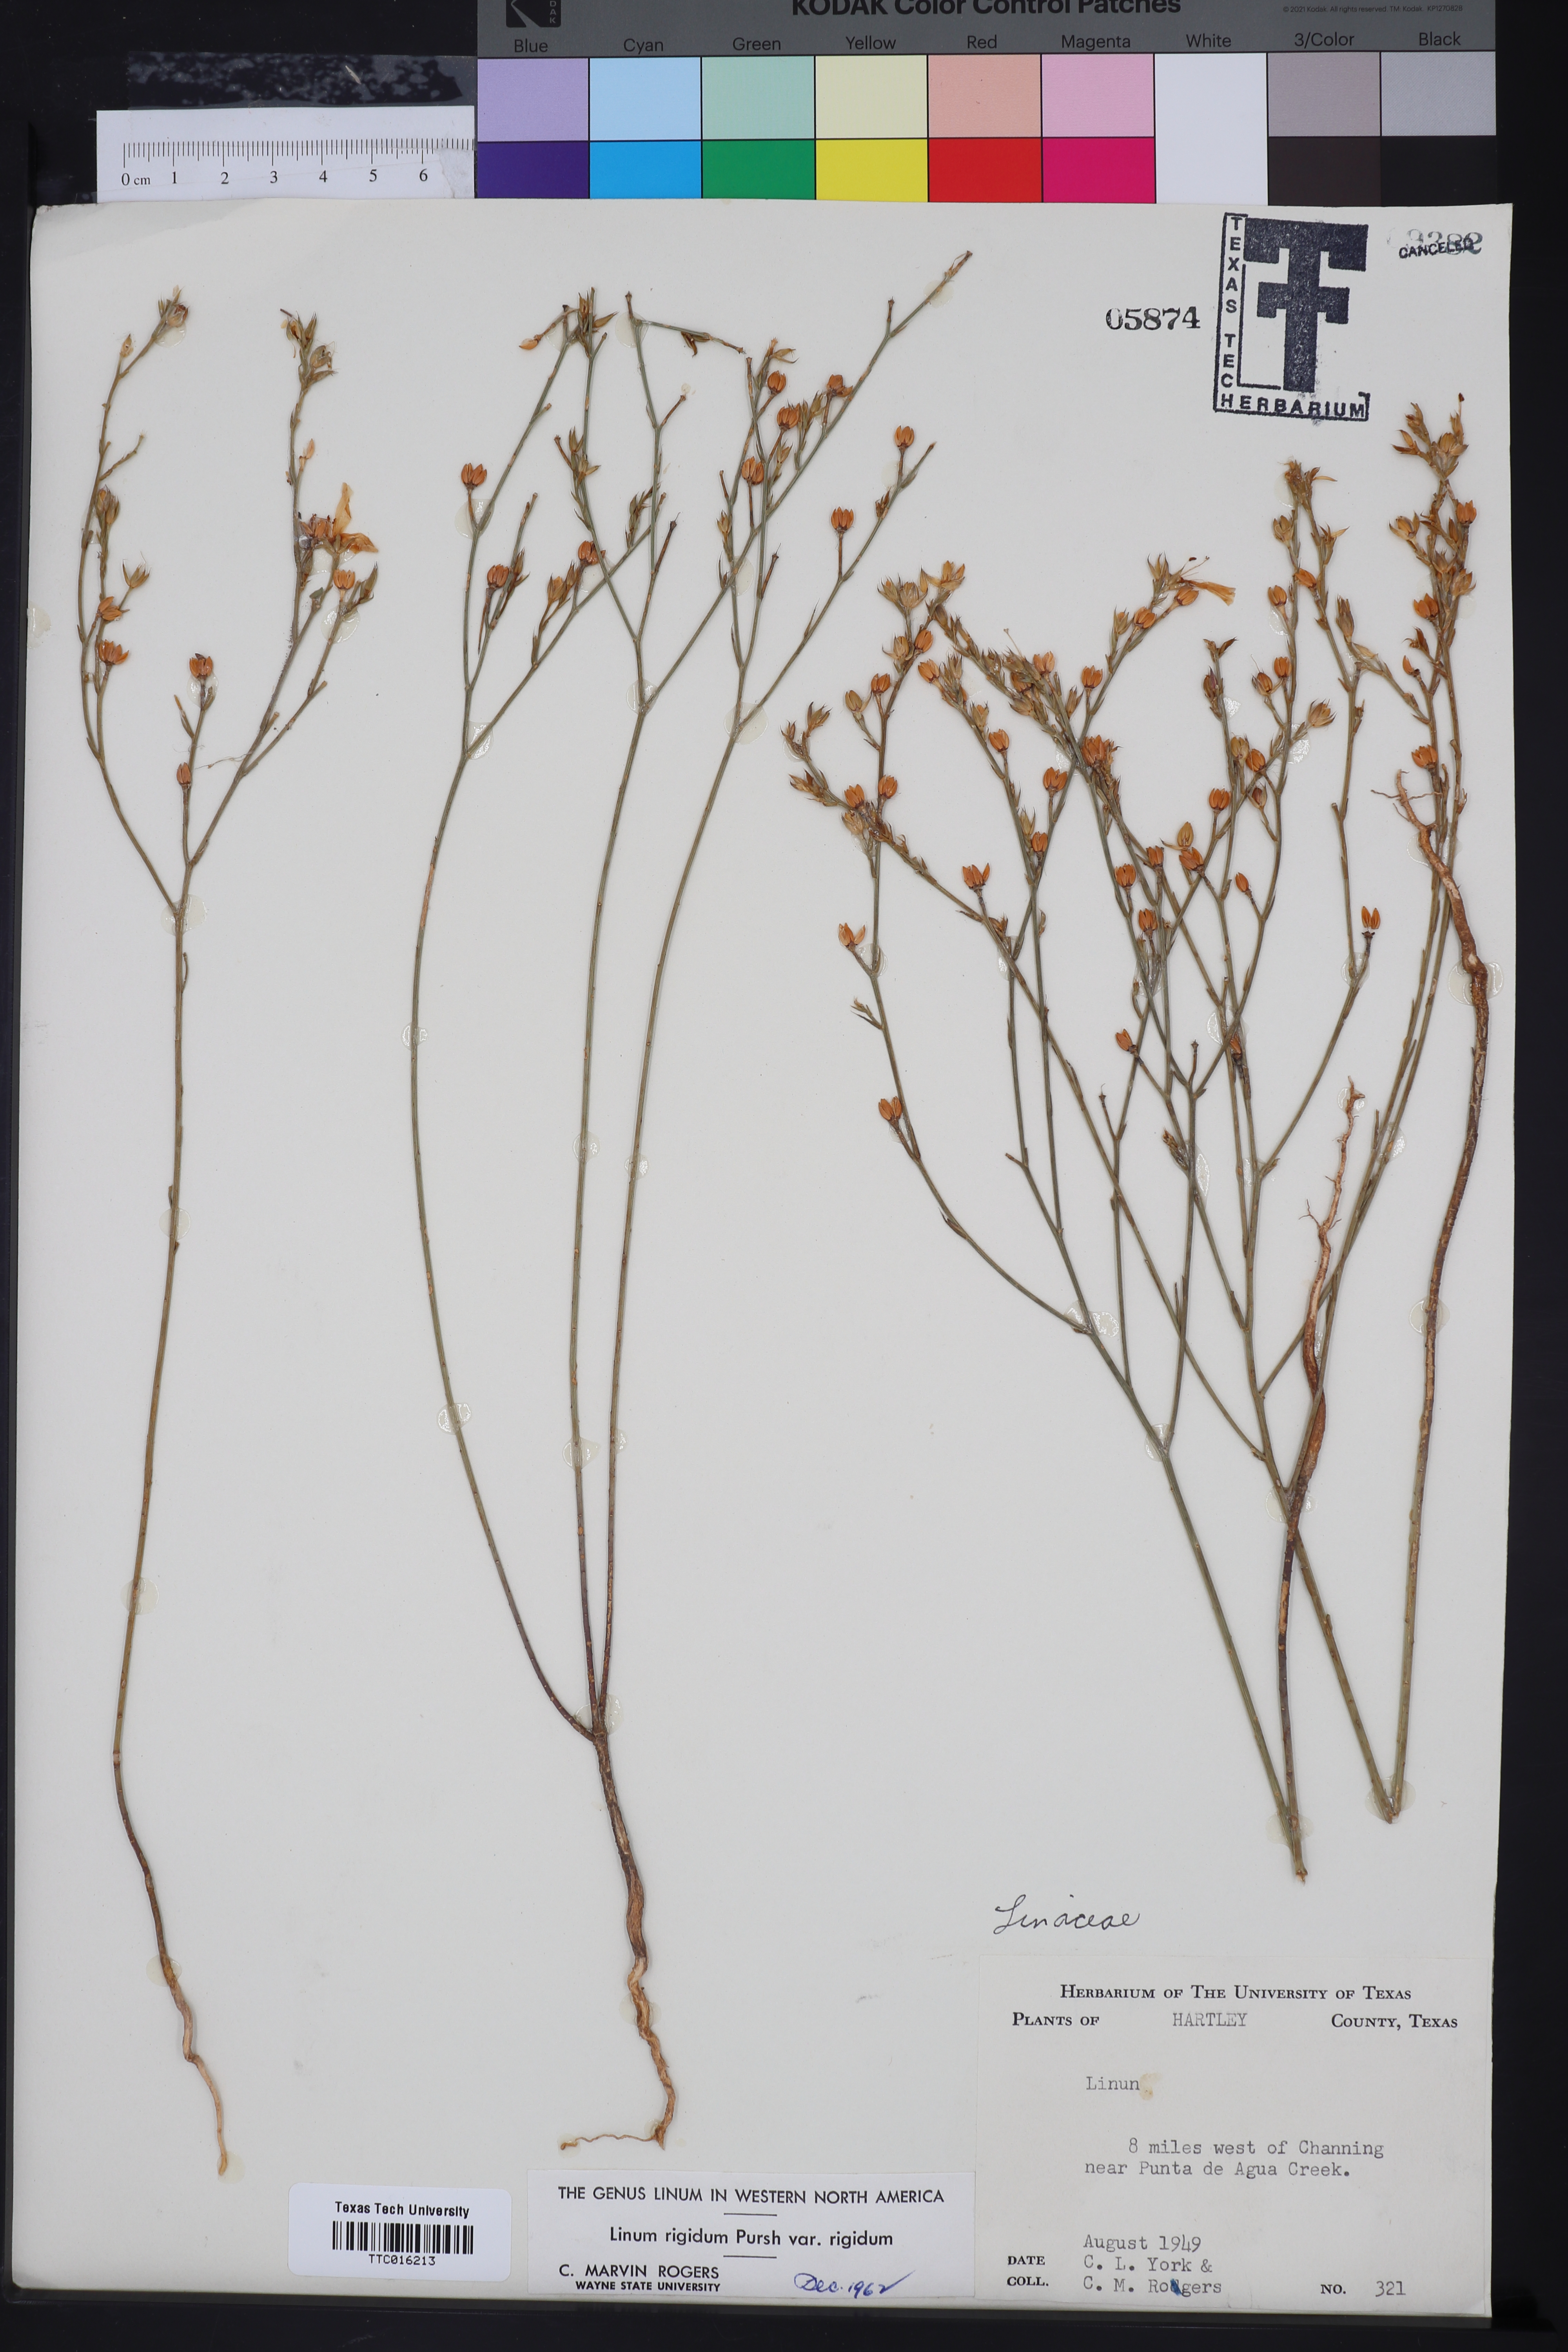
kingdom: Plantae
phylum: Tracheophyta
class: Magnoliopsida
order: Malpighiales
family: Linaceae
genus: Linum
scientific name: Linum rigidum
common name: Stiff-stem flax
